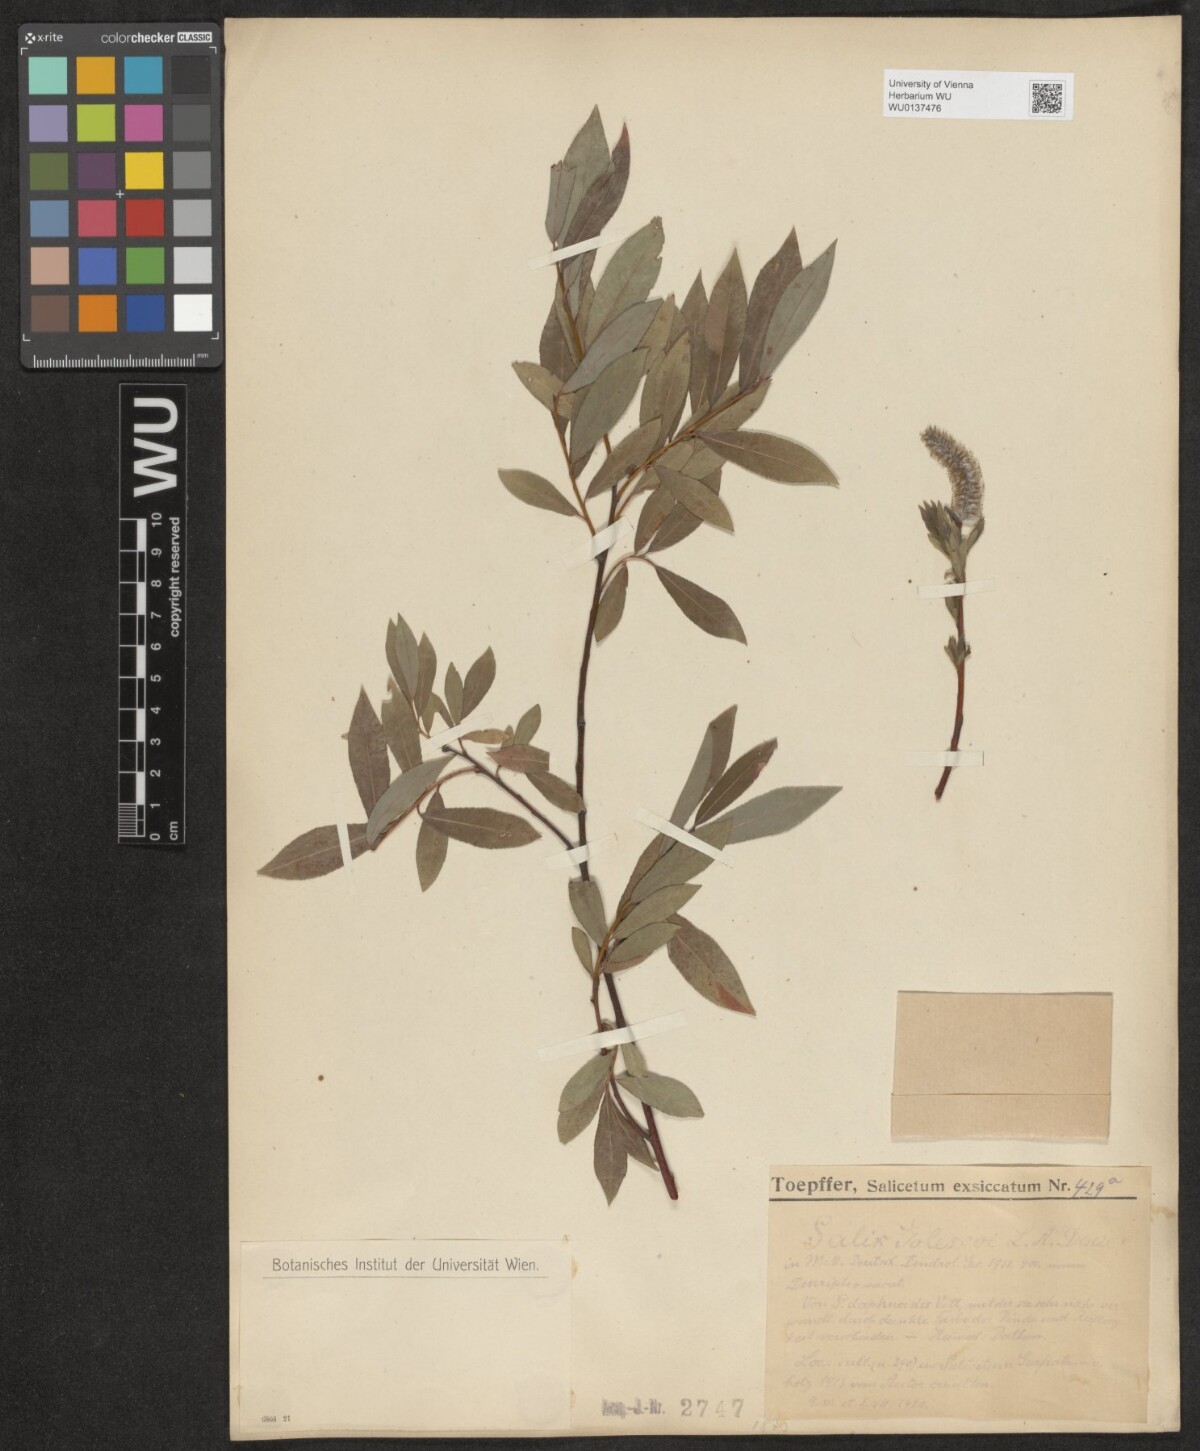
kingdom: Plantae
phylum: Tracheophyta
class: Magnoliopsida
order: Malpighiales
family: Salicaceae
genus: Salix
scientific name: Salix daphnoides
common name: European violet-willow
